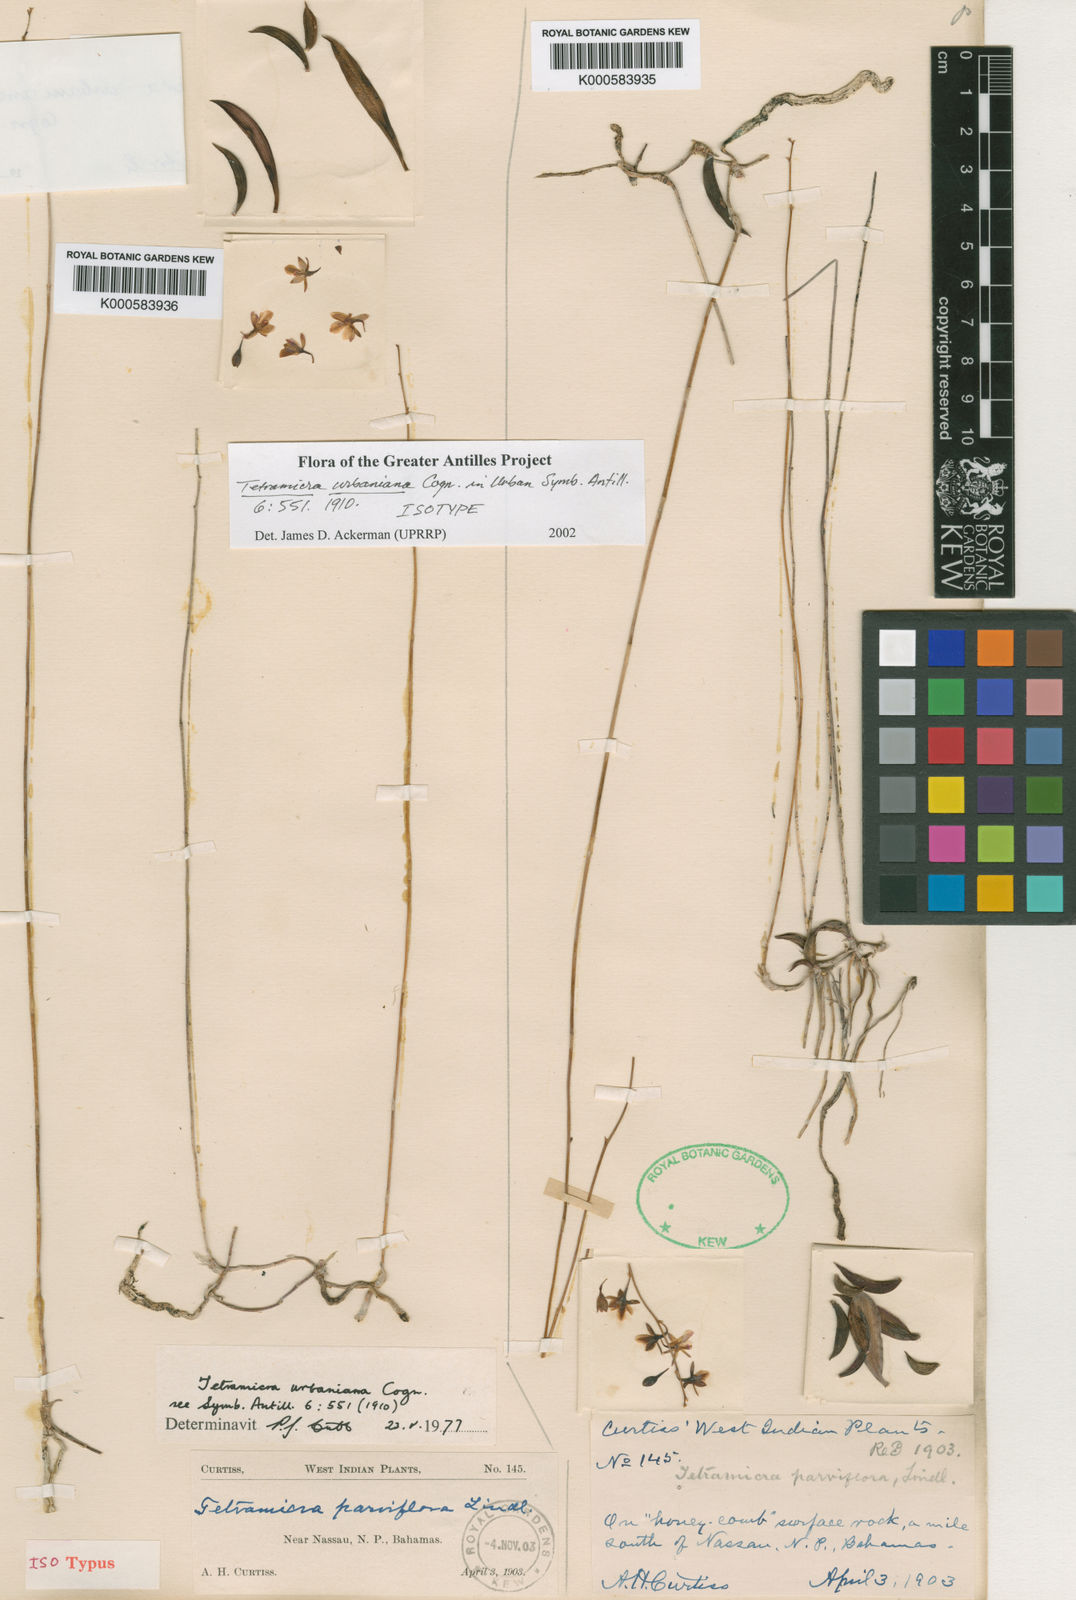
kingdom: Plantae
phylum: Tracheophyta
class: Liliopsida
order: Asparagales
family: Orchidaceae
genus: Tetramicra
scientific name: Tetramicra parviflora
